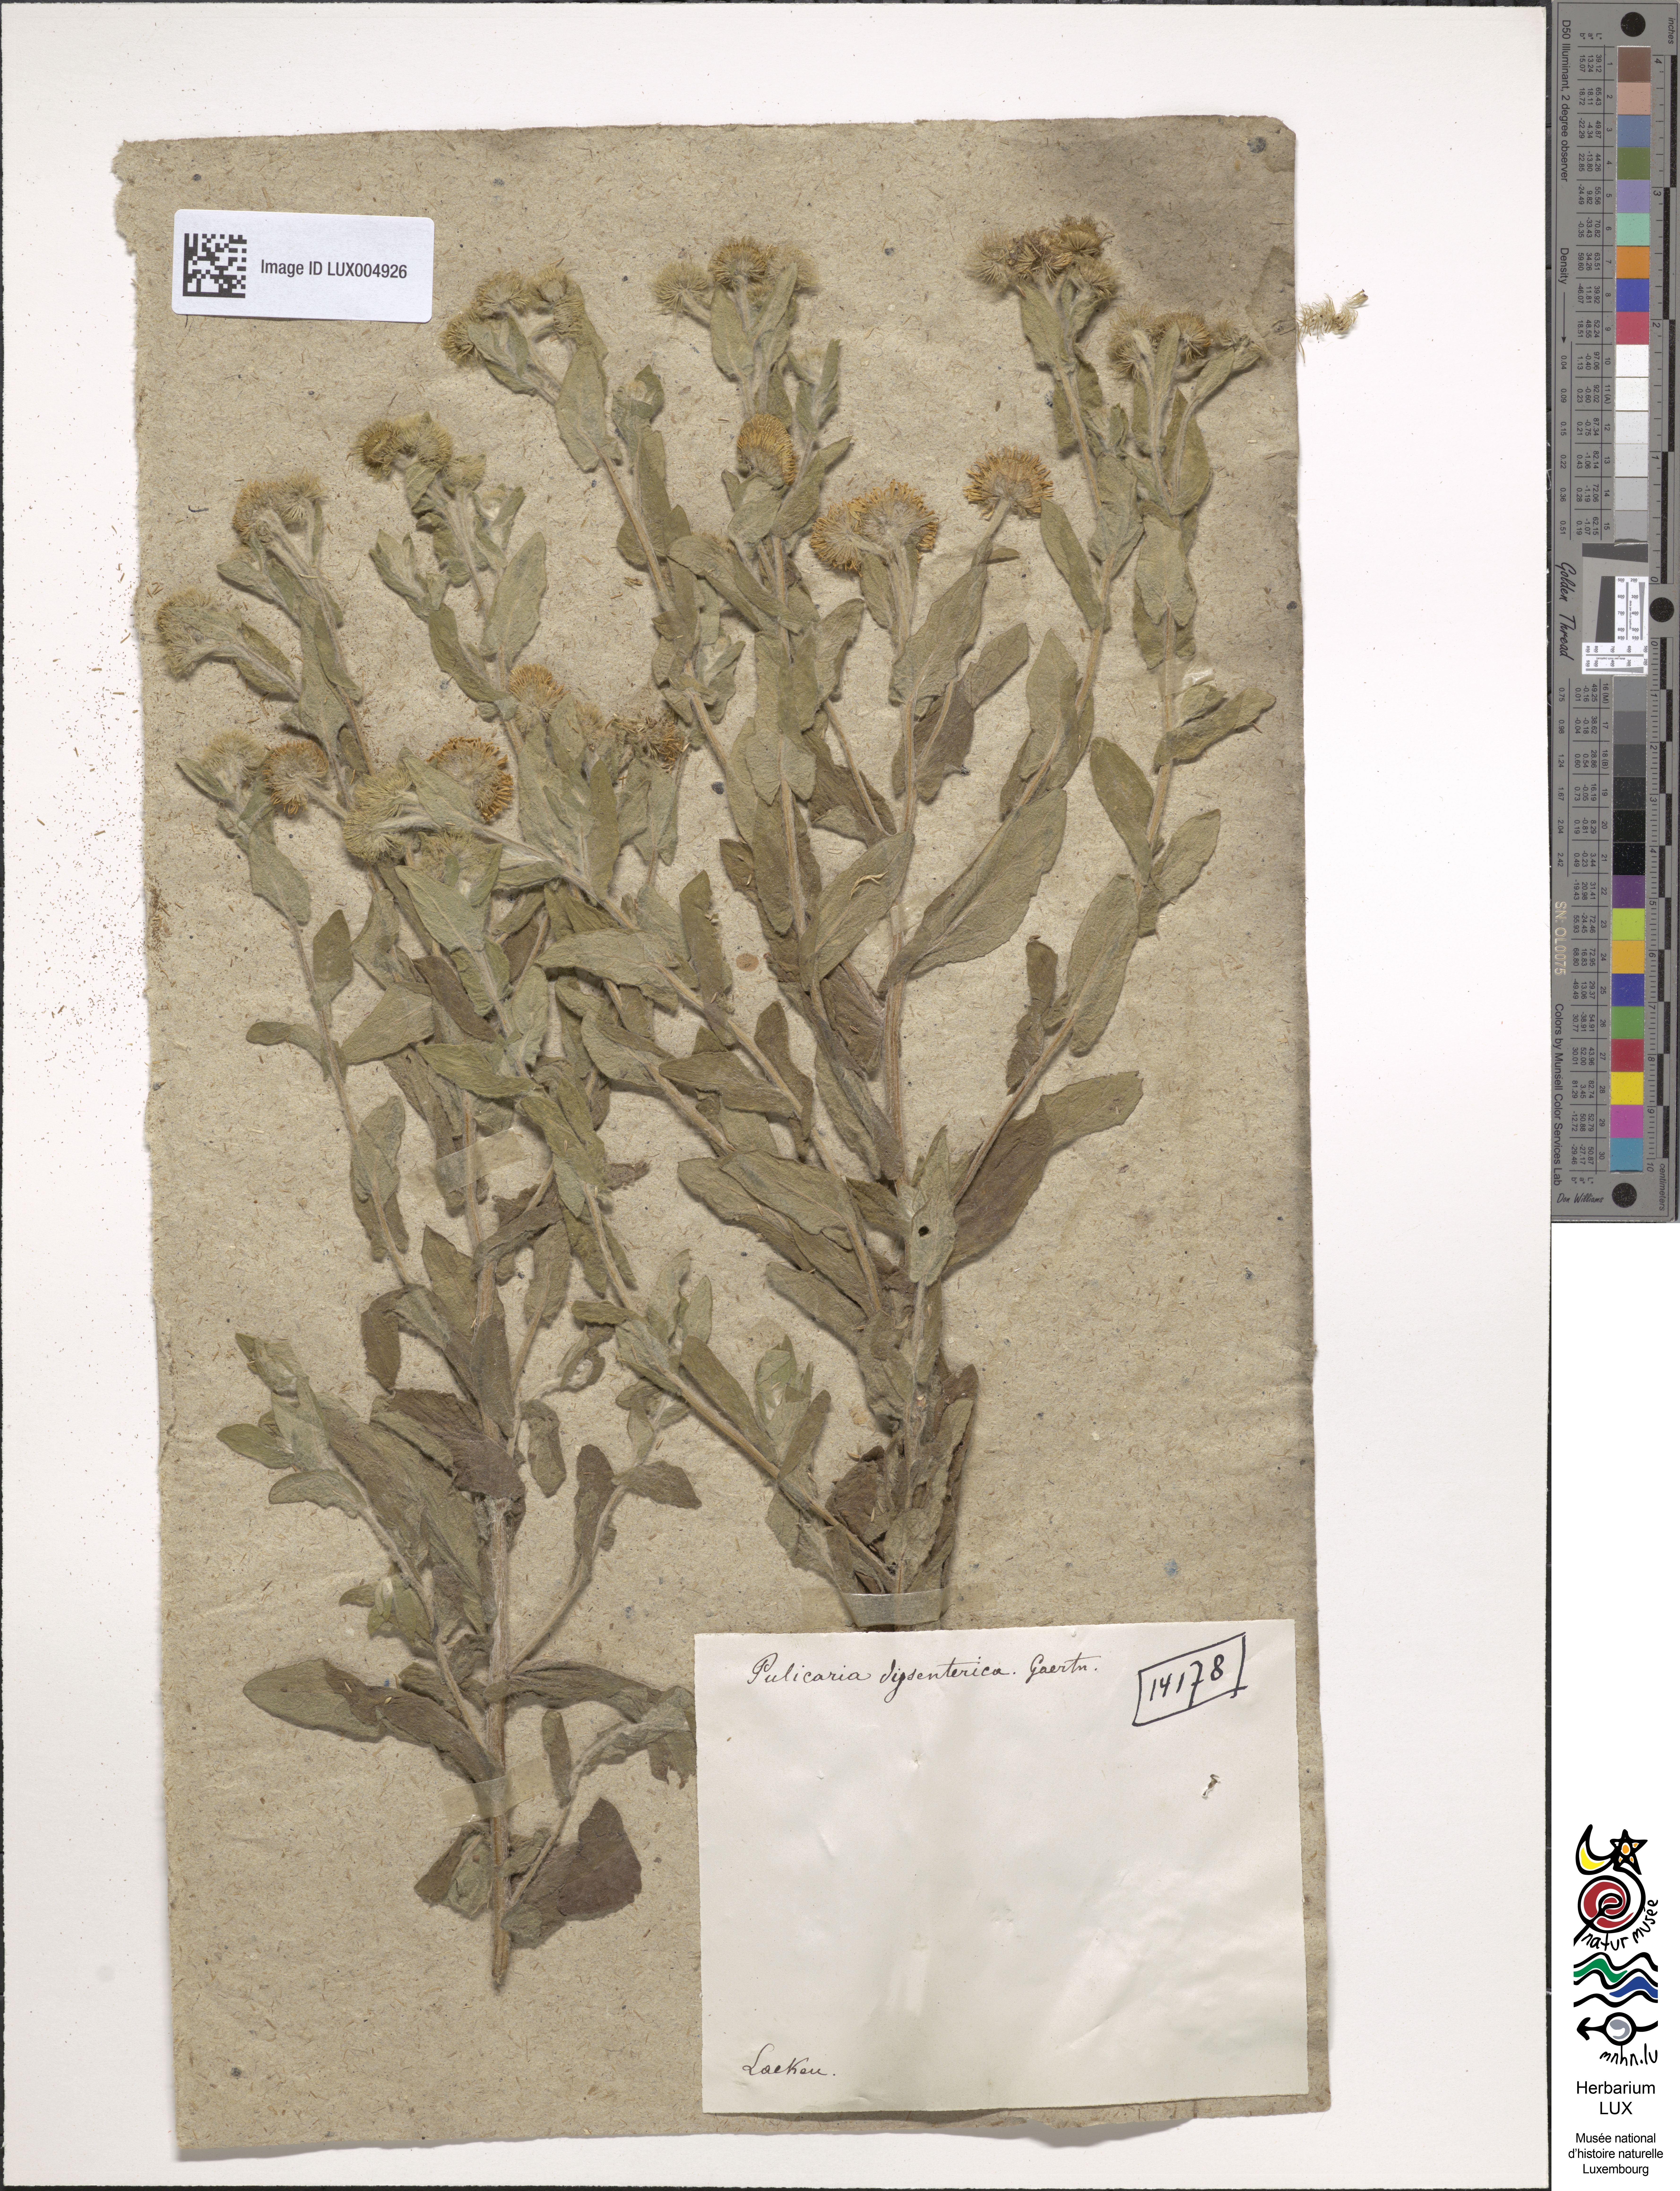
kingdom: Plantae
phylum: Tracheophyta
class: Magnoliopsida
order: Asterales
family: Asteraceae
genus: Pulicaria
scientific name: Pulicaria dysenterica
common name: Common fleabane
